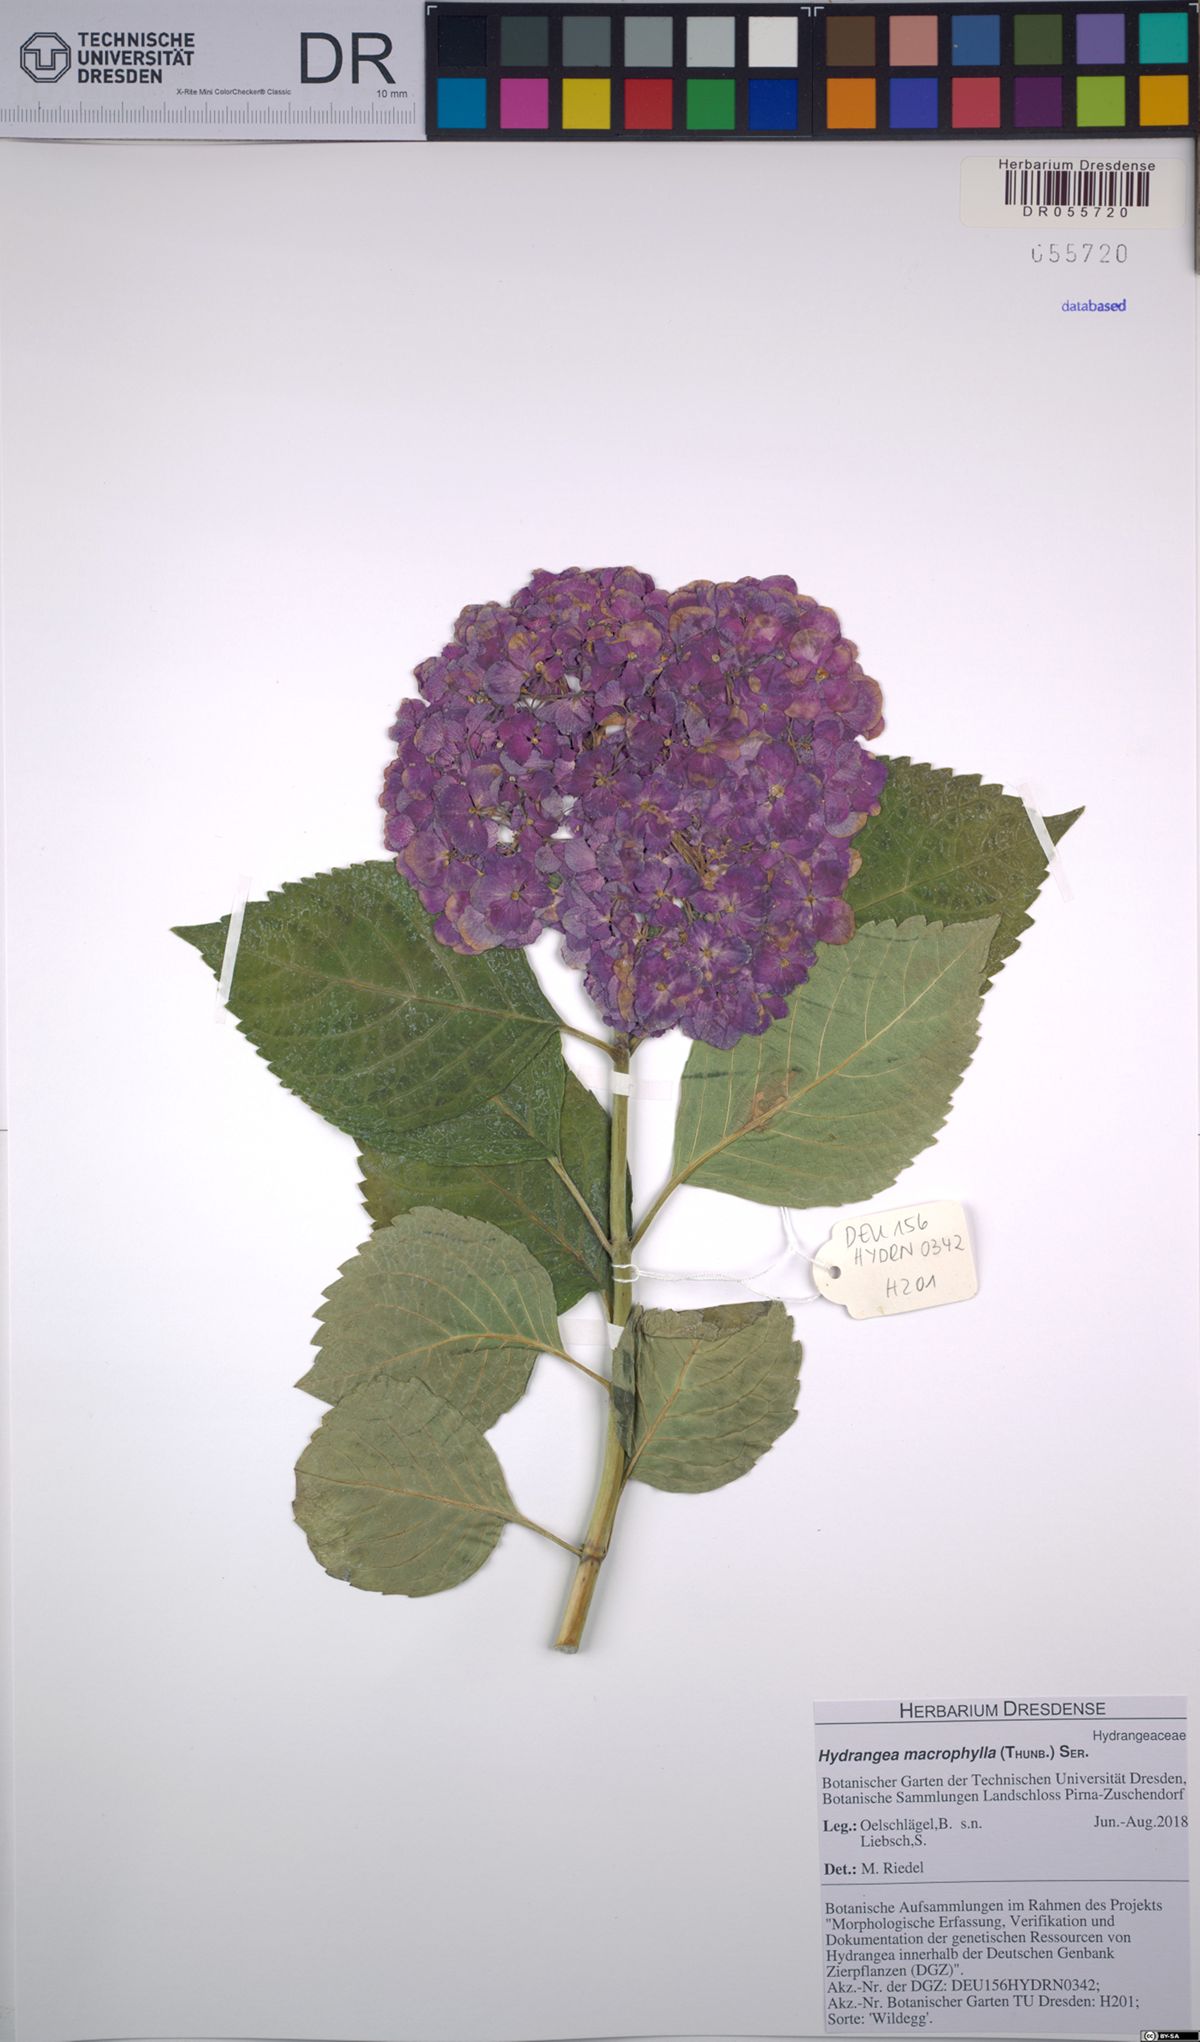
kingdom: Plantae
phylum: Tracheophyta
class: Magnoliopsida
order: Cornales
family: Hydrangeaceae
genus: Hydrangea
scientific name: Hydrangea macrophylla
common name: Hydrangea
